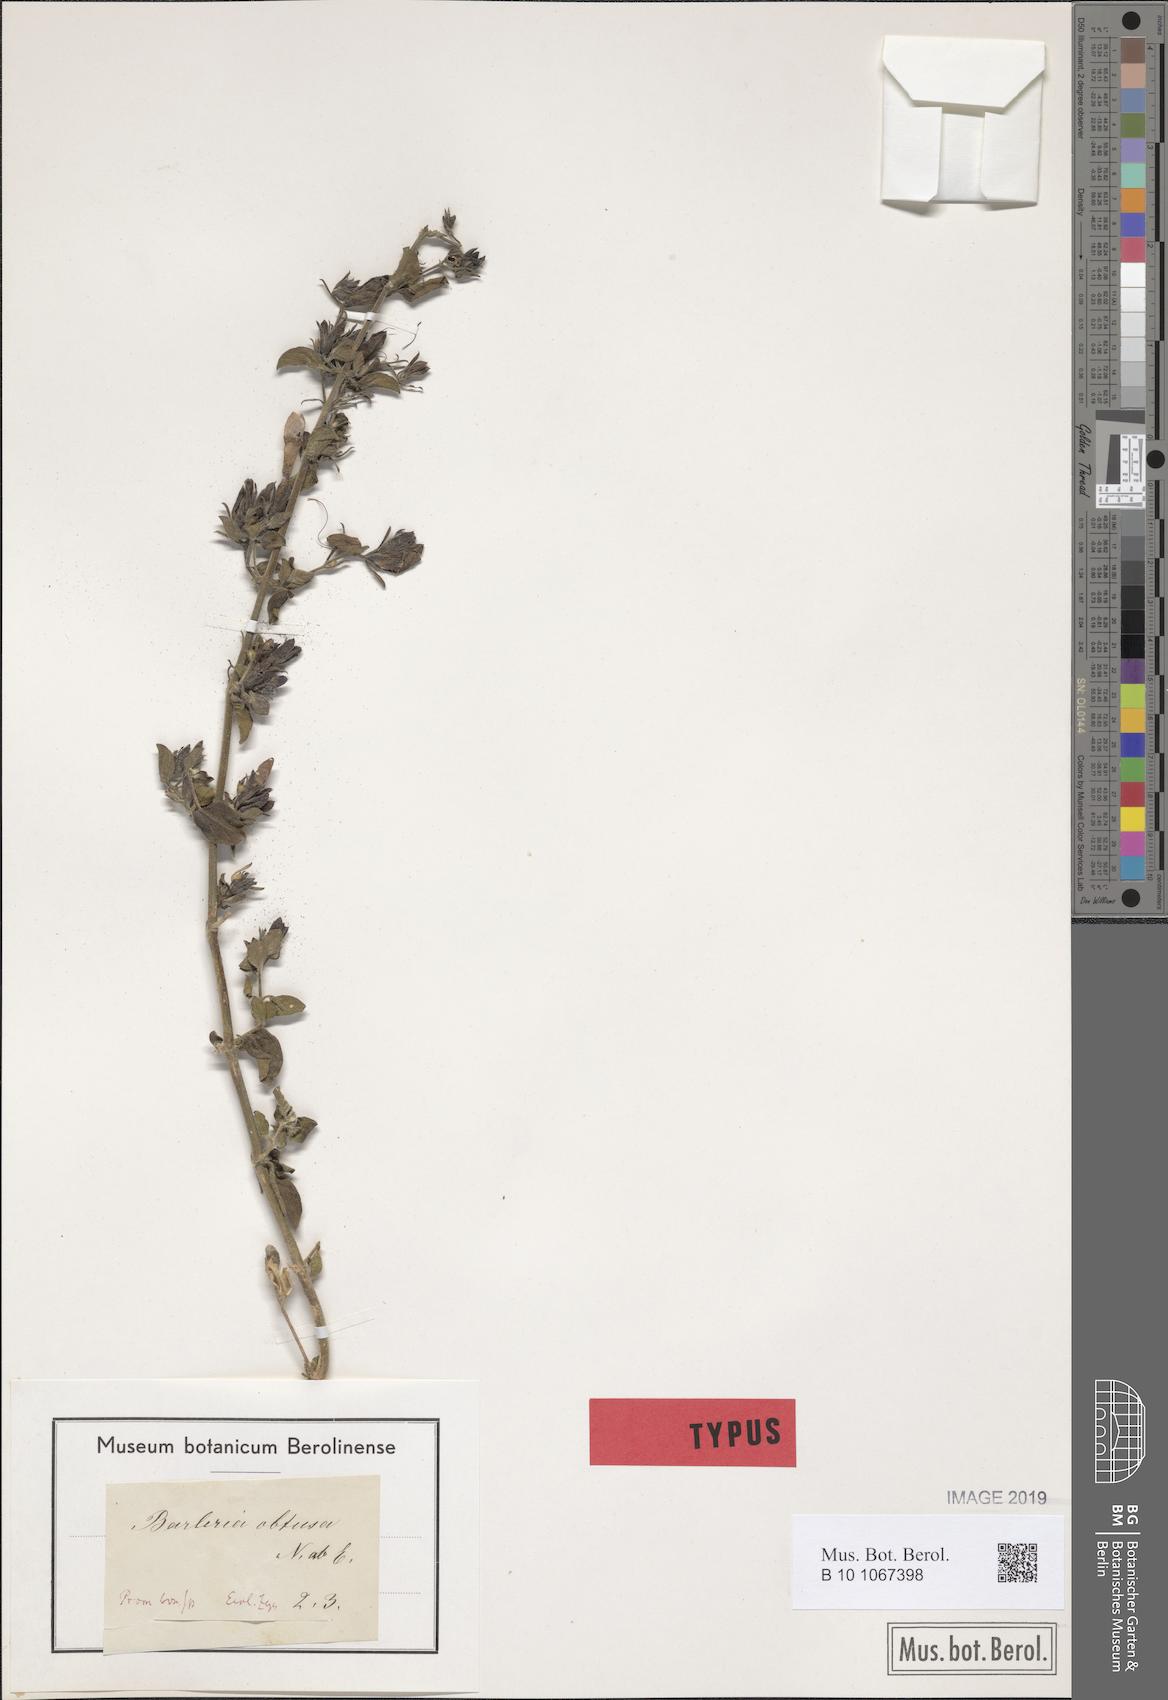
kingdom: Plantae
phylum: Tracheophyta
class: Magnoliopsida
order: Lamiales
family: Acanthaceae
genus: Barleria
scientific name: Barleria obtusa
